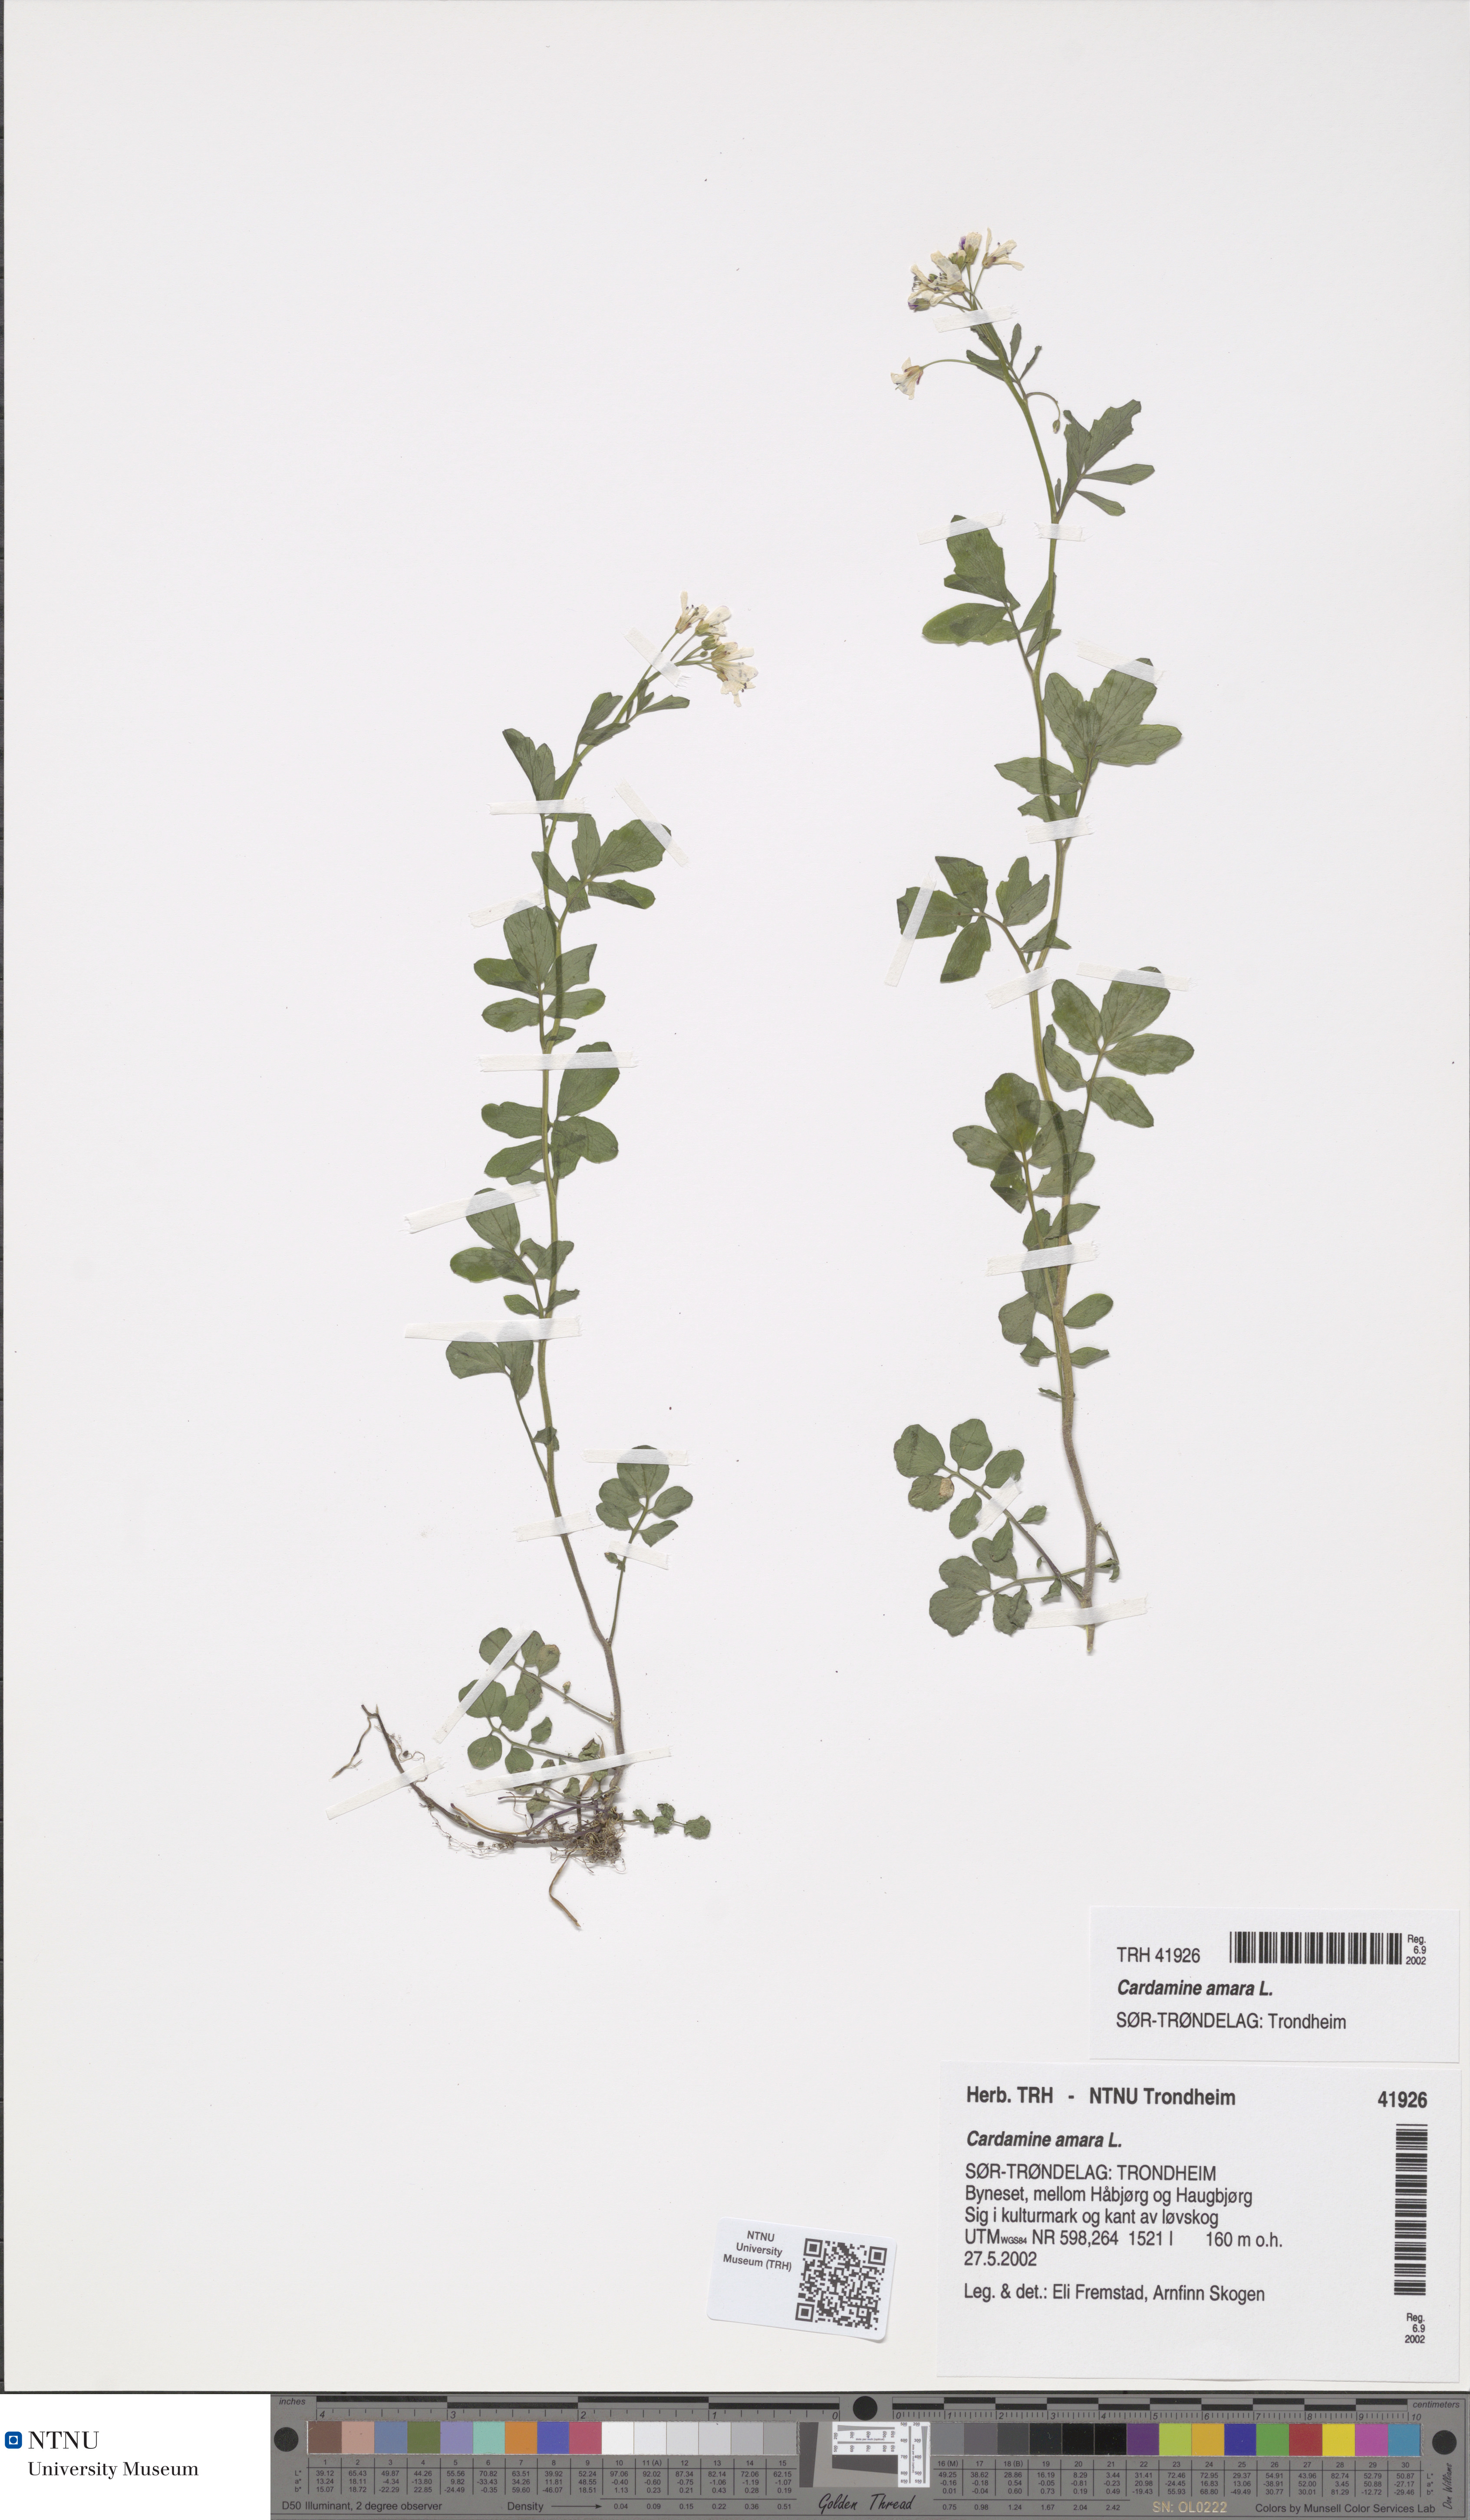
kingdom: Plantae
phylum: Tracheophyta
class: Magnoliopsida
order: Brassicales
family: Brassicaceae
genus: Cardamine
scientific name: Cardamine amara
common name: Large bitter-cress
